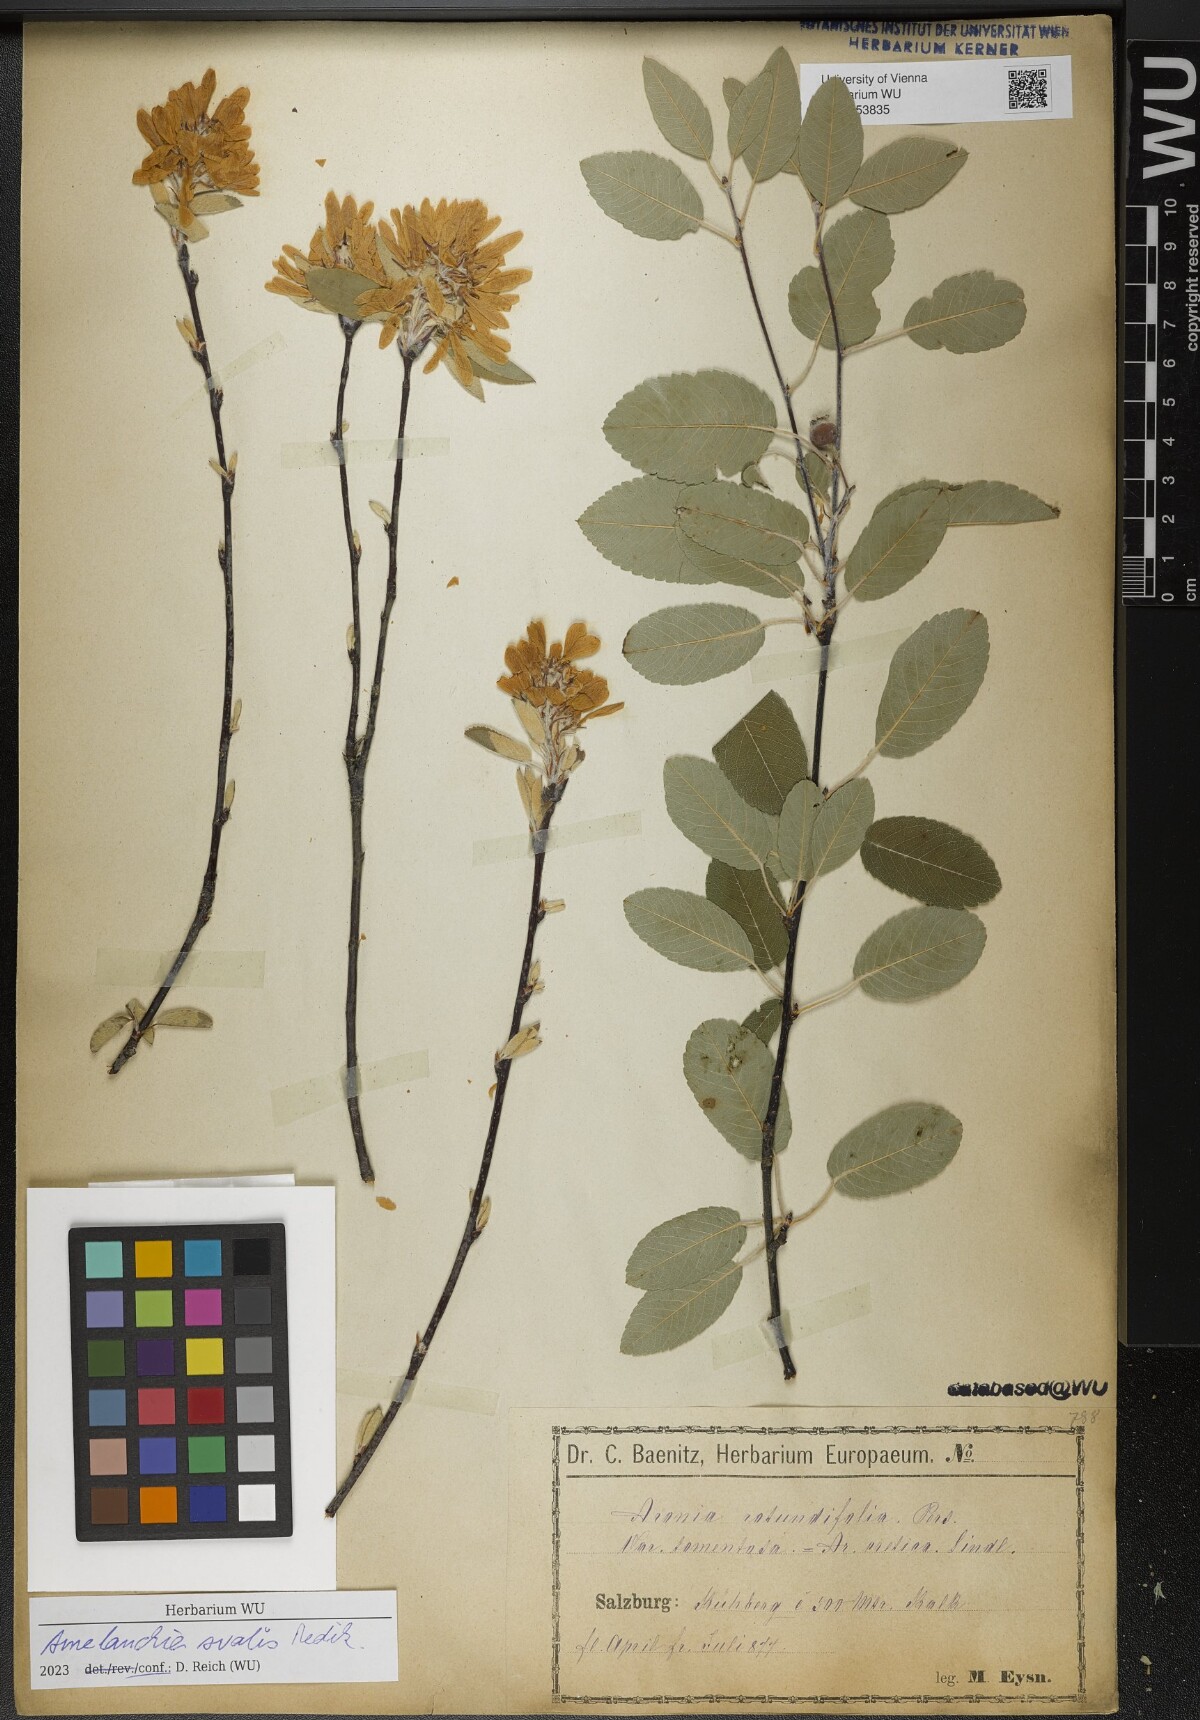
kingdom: Plantae
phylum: Tracheophyta
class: Magnoliopsida
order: Rosales
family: Rosaceae
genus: Amelanchier
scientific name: Amelanchier ovalis
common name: Serviceberry
